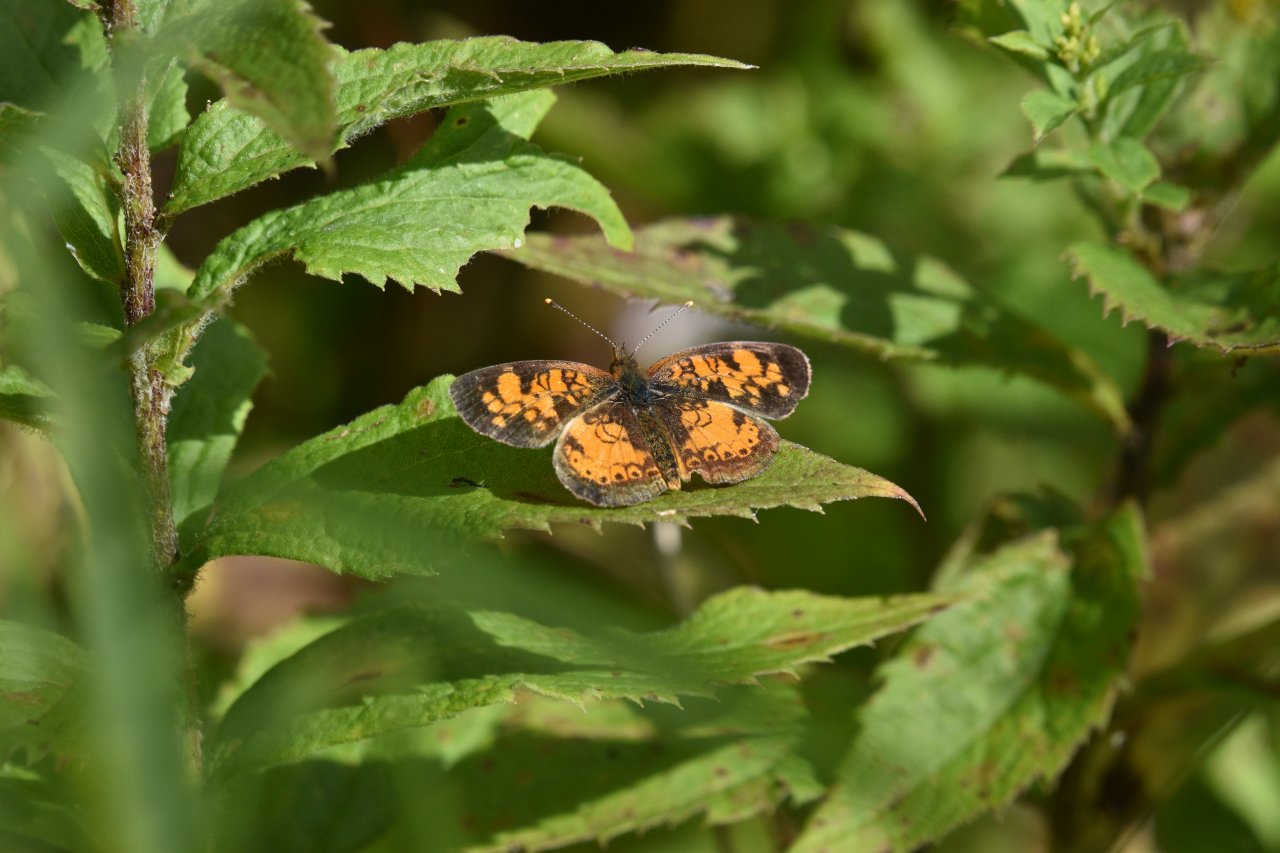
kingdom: Animalia
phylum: Arthropoda
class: Insecta
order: Lepidoptera
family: Nymphalidae
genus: Phyciodes
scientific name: Phyciodes tharos
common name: Northern Crescent
